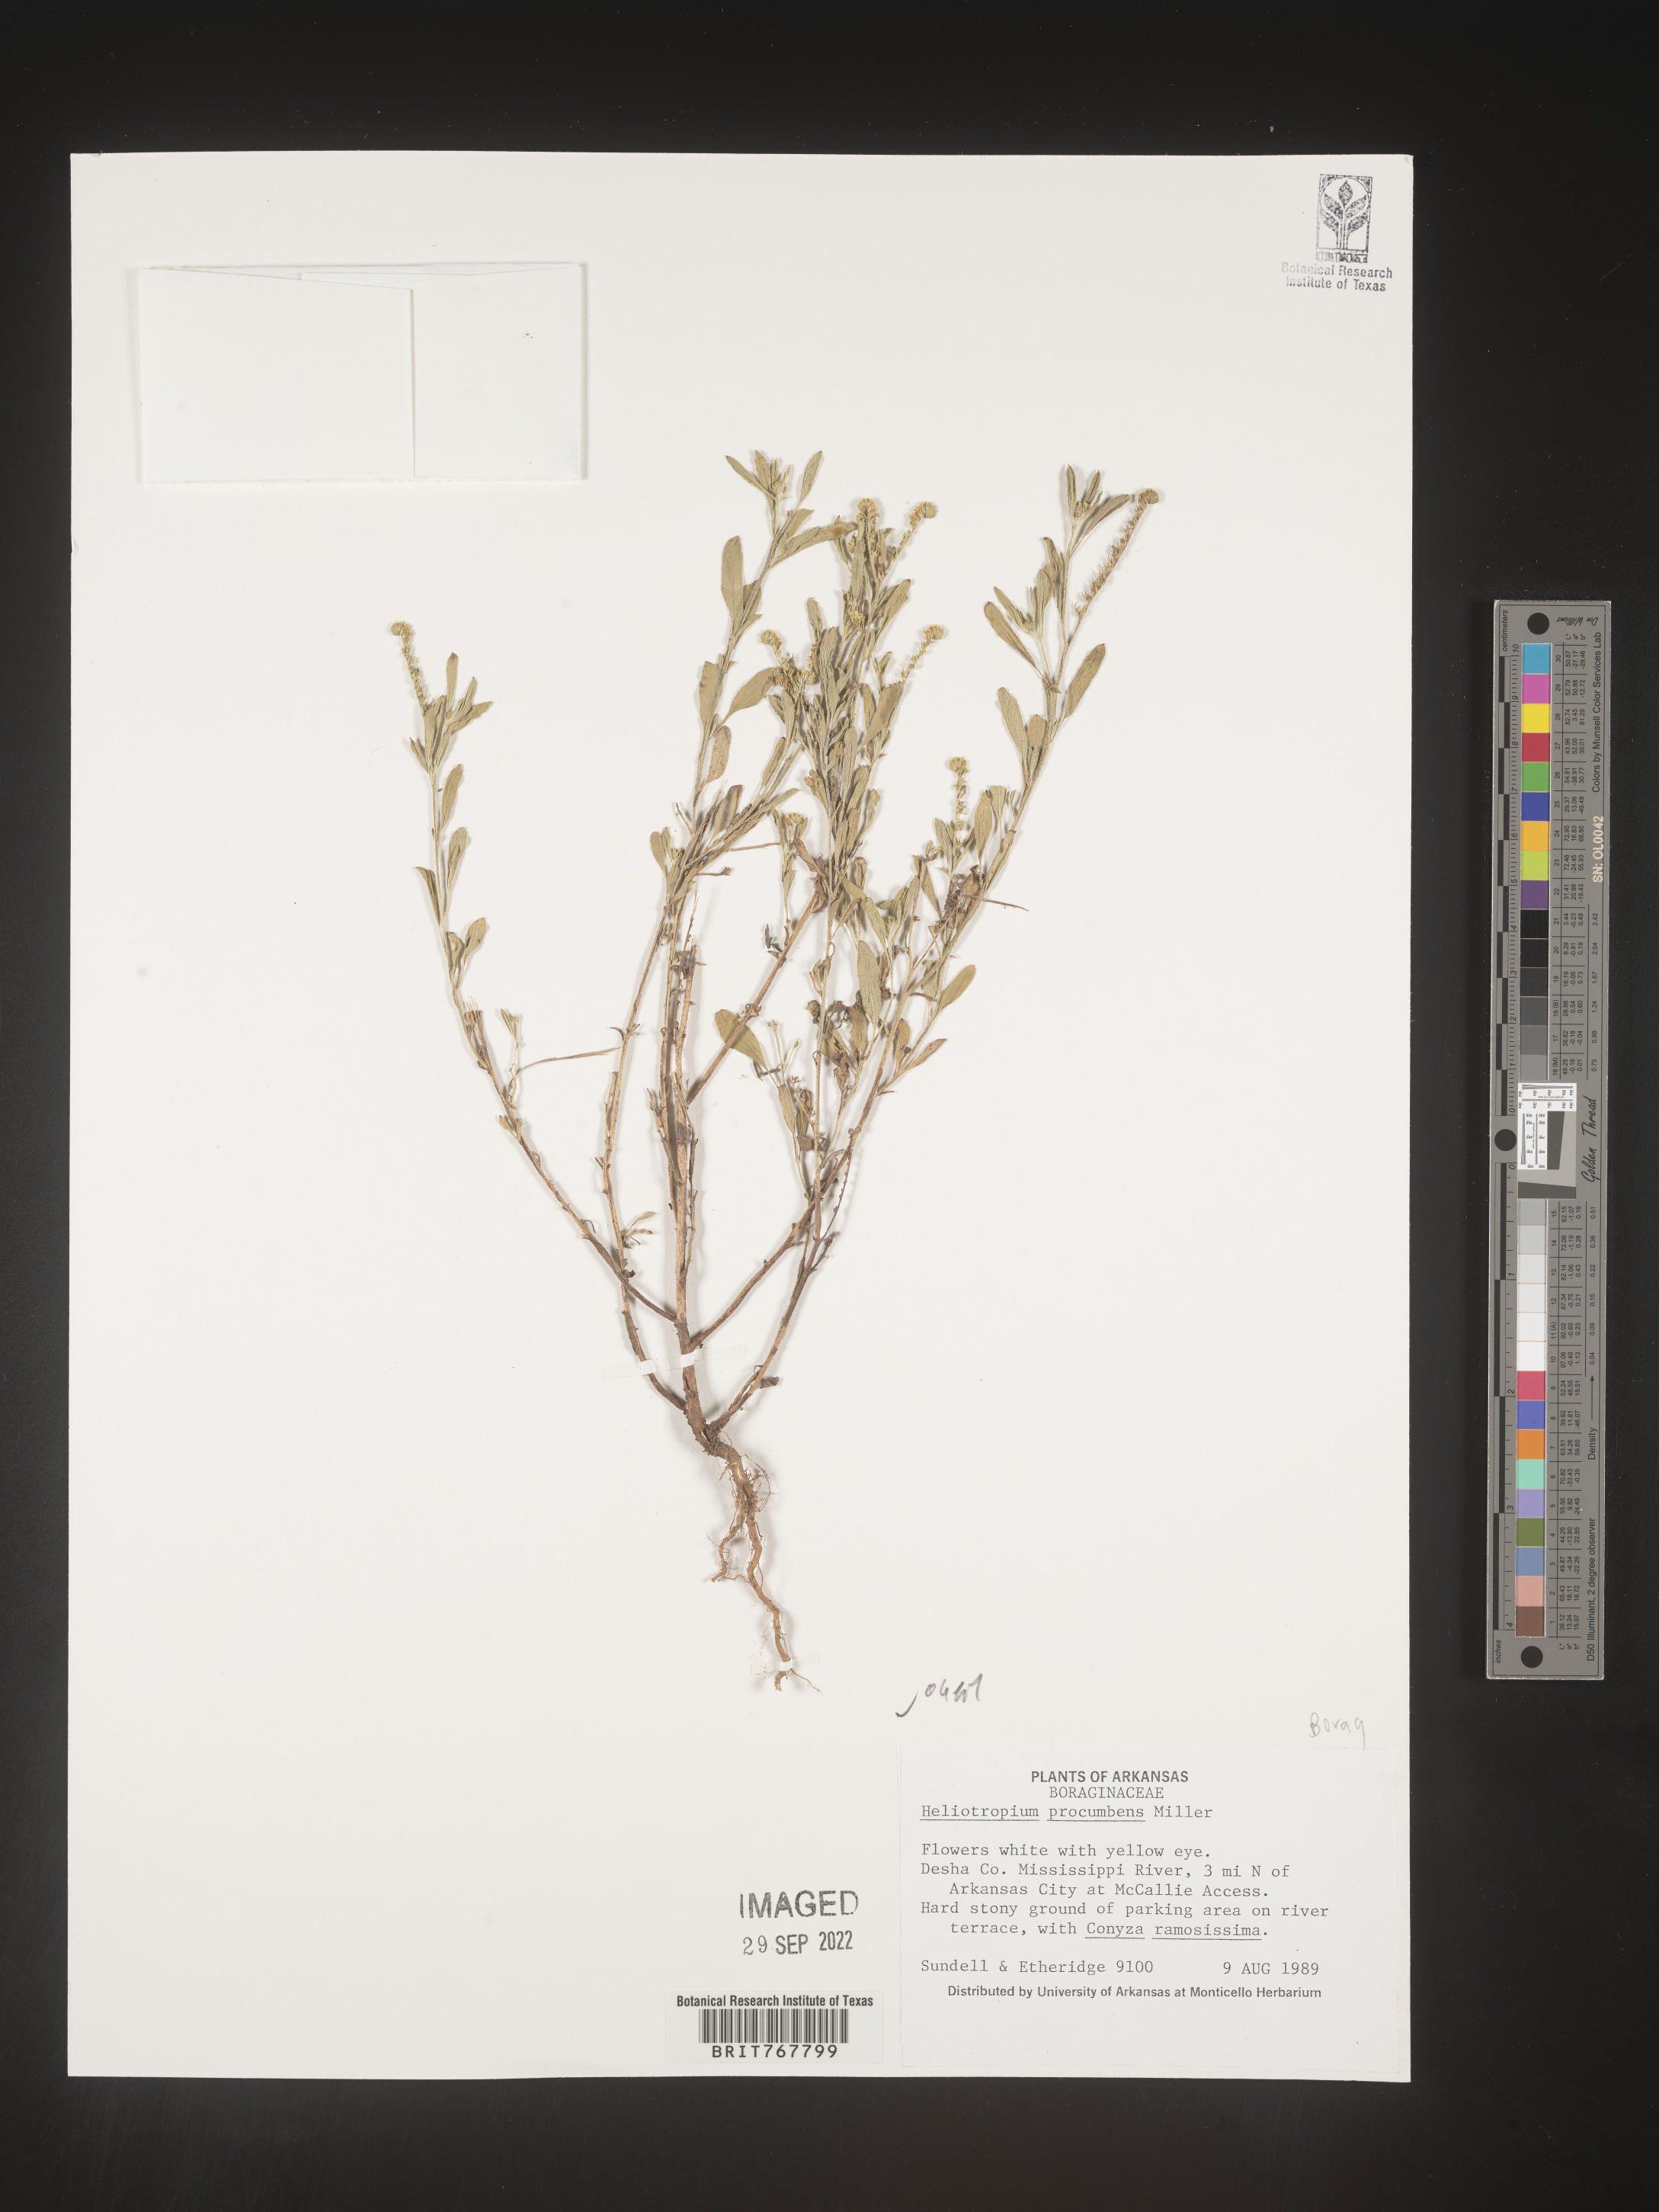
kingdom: Plantae
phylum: Tracheophyta
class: Magnoliopsida
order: Boraginales
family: Heliotropiaceae
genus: Heliotropium
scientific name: Heliotropium
